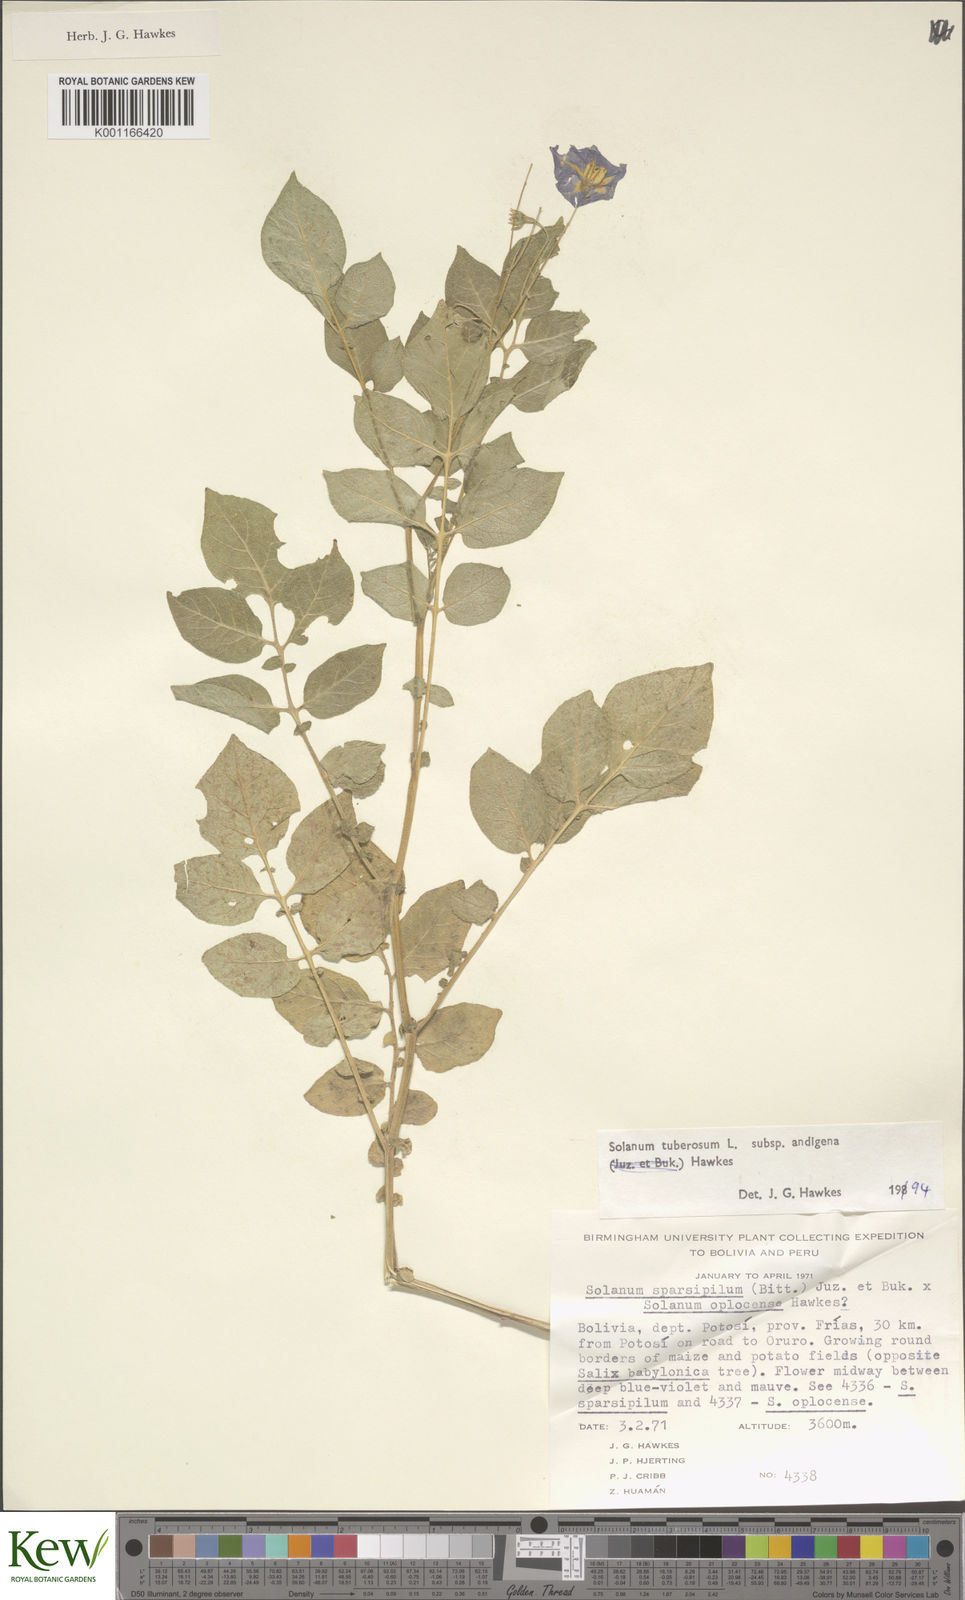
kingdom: Plantae
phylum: Tracheophyta
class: Magnoliopsida
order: Solanales
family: Solanaceae
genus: Solanum
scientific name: Solanum tuberosum
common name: Potato
